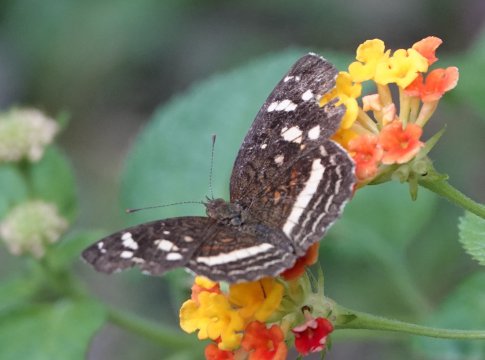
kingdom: Animalia
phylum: Arthropoda
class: Insecta
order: Lepidoptera
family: Nymphalidae
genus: Anthanassa
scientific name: Anthanassa tulcis
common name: Pale-banded Crescent
